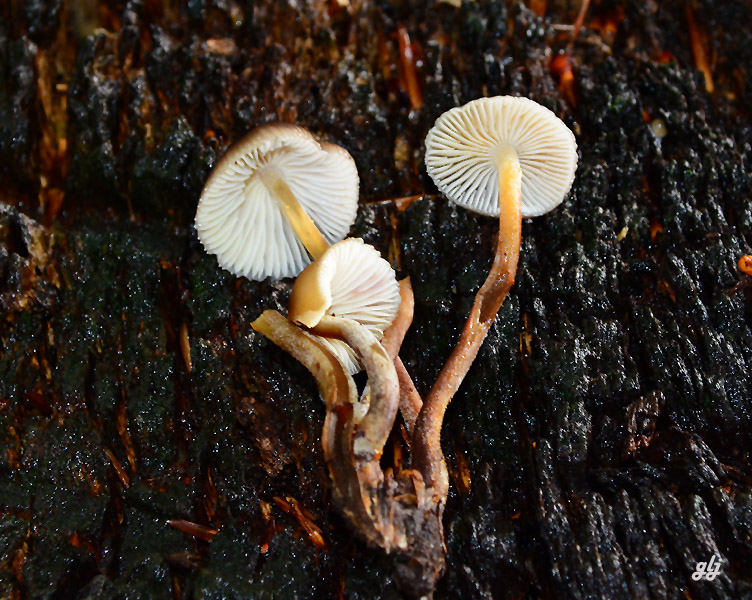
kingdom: Fungi
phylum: Basidiomycota
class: Agaricomycetes
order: Agaricales
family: Mycenaceae
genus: Mycena
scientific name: Mycena inclinata
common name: nikkende huesvamp
